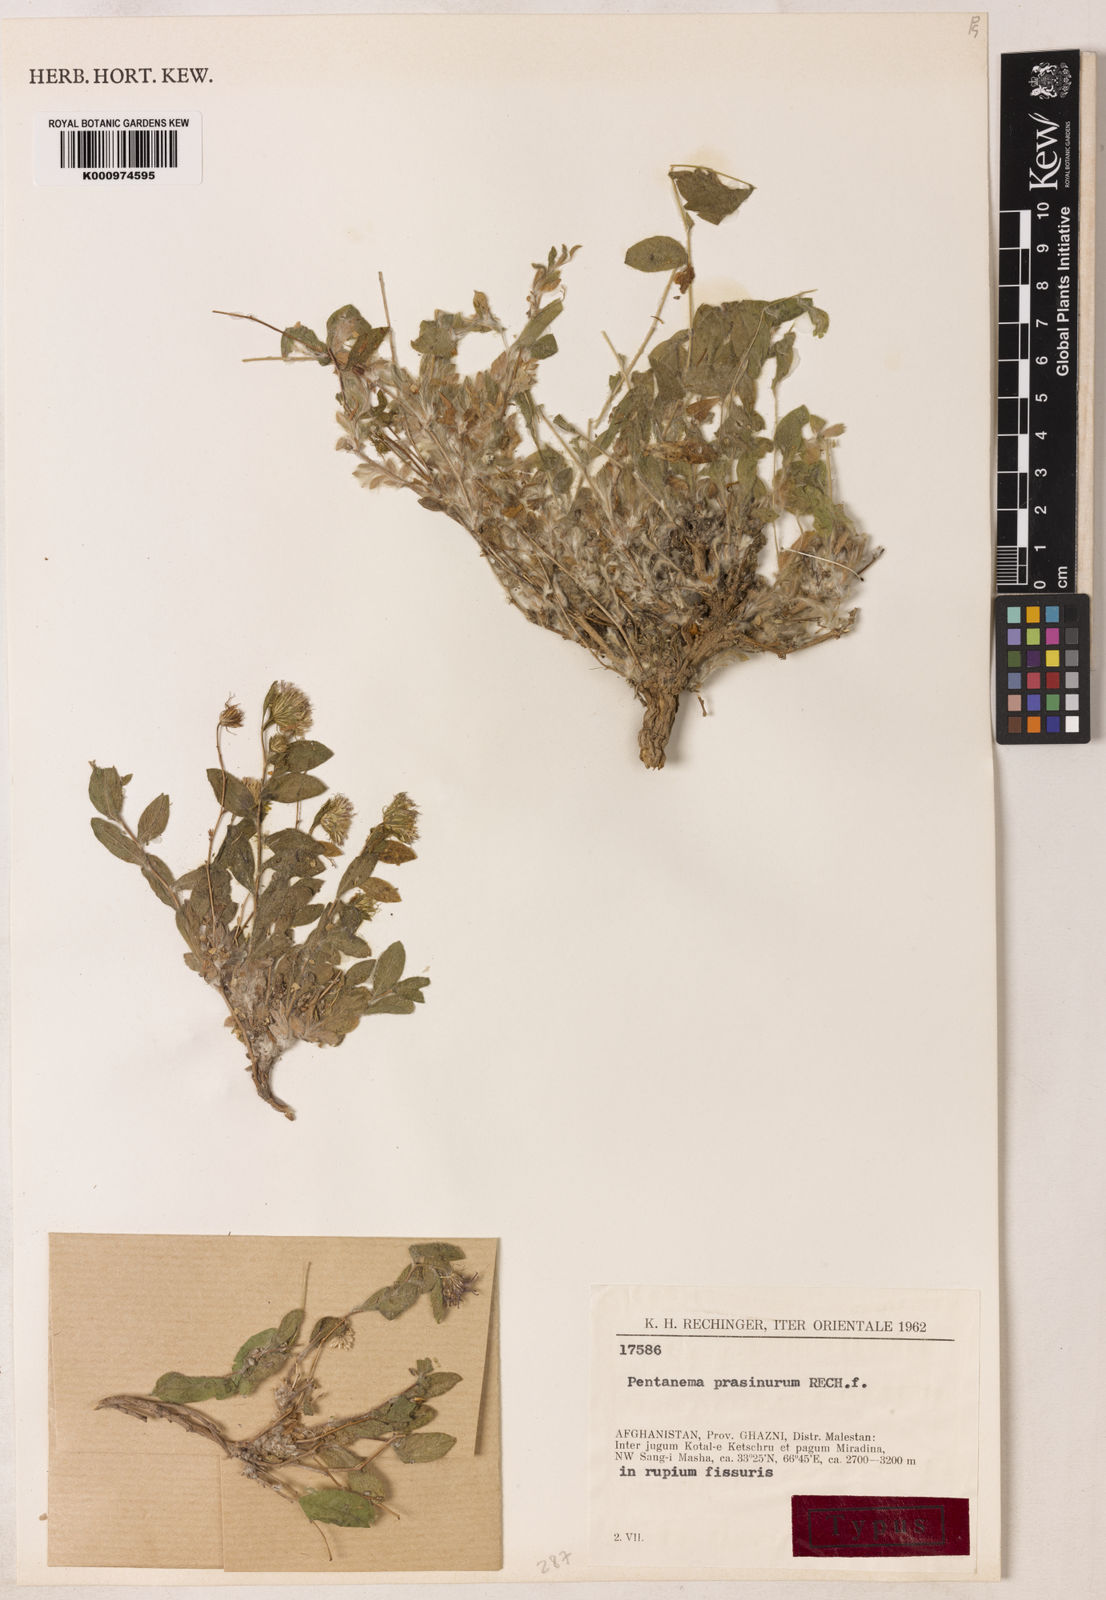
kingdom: Plantae
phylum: Tracheophyta
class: Magnoliopsida
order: Asterales
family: Asteraceae
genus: Pentanema
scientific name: Pentanema prasinurum
